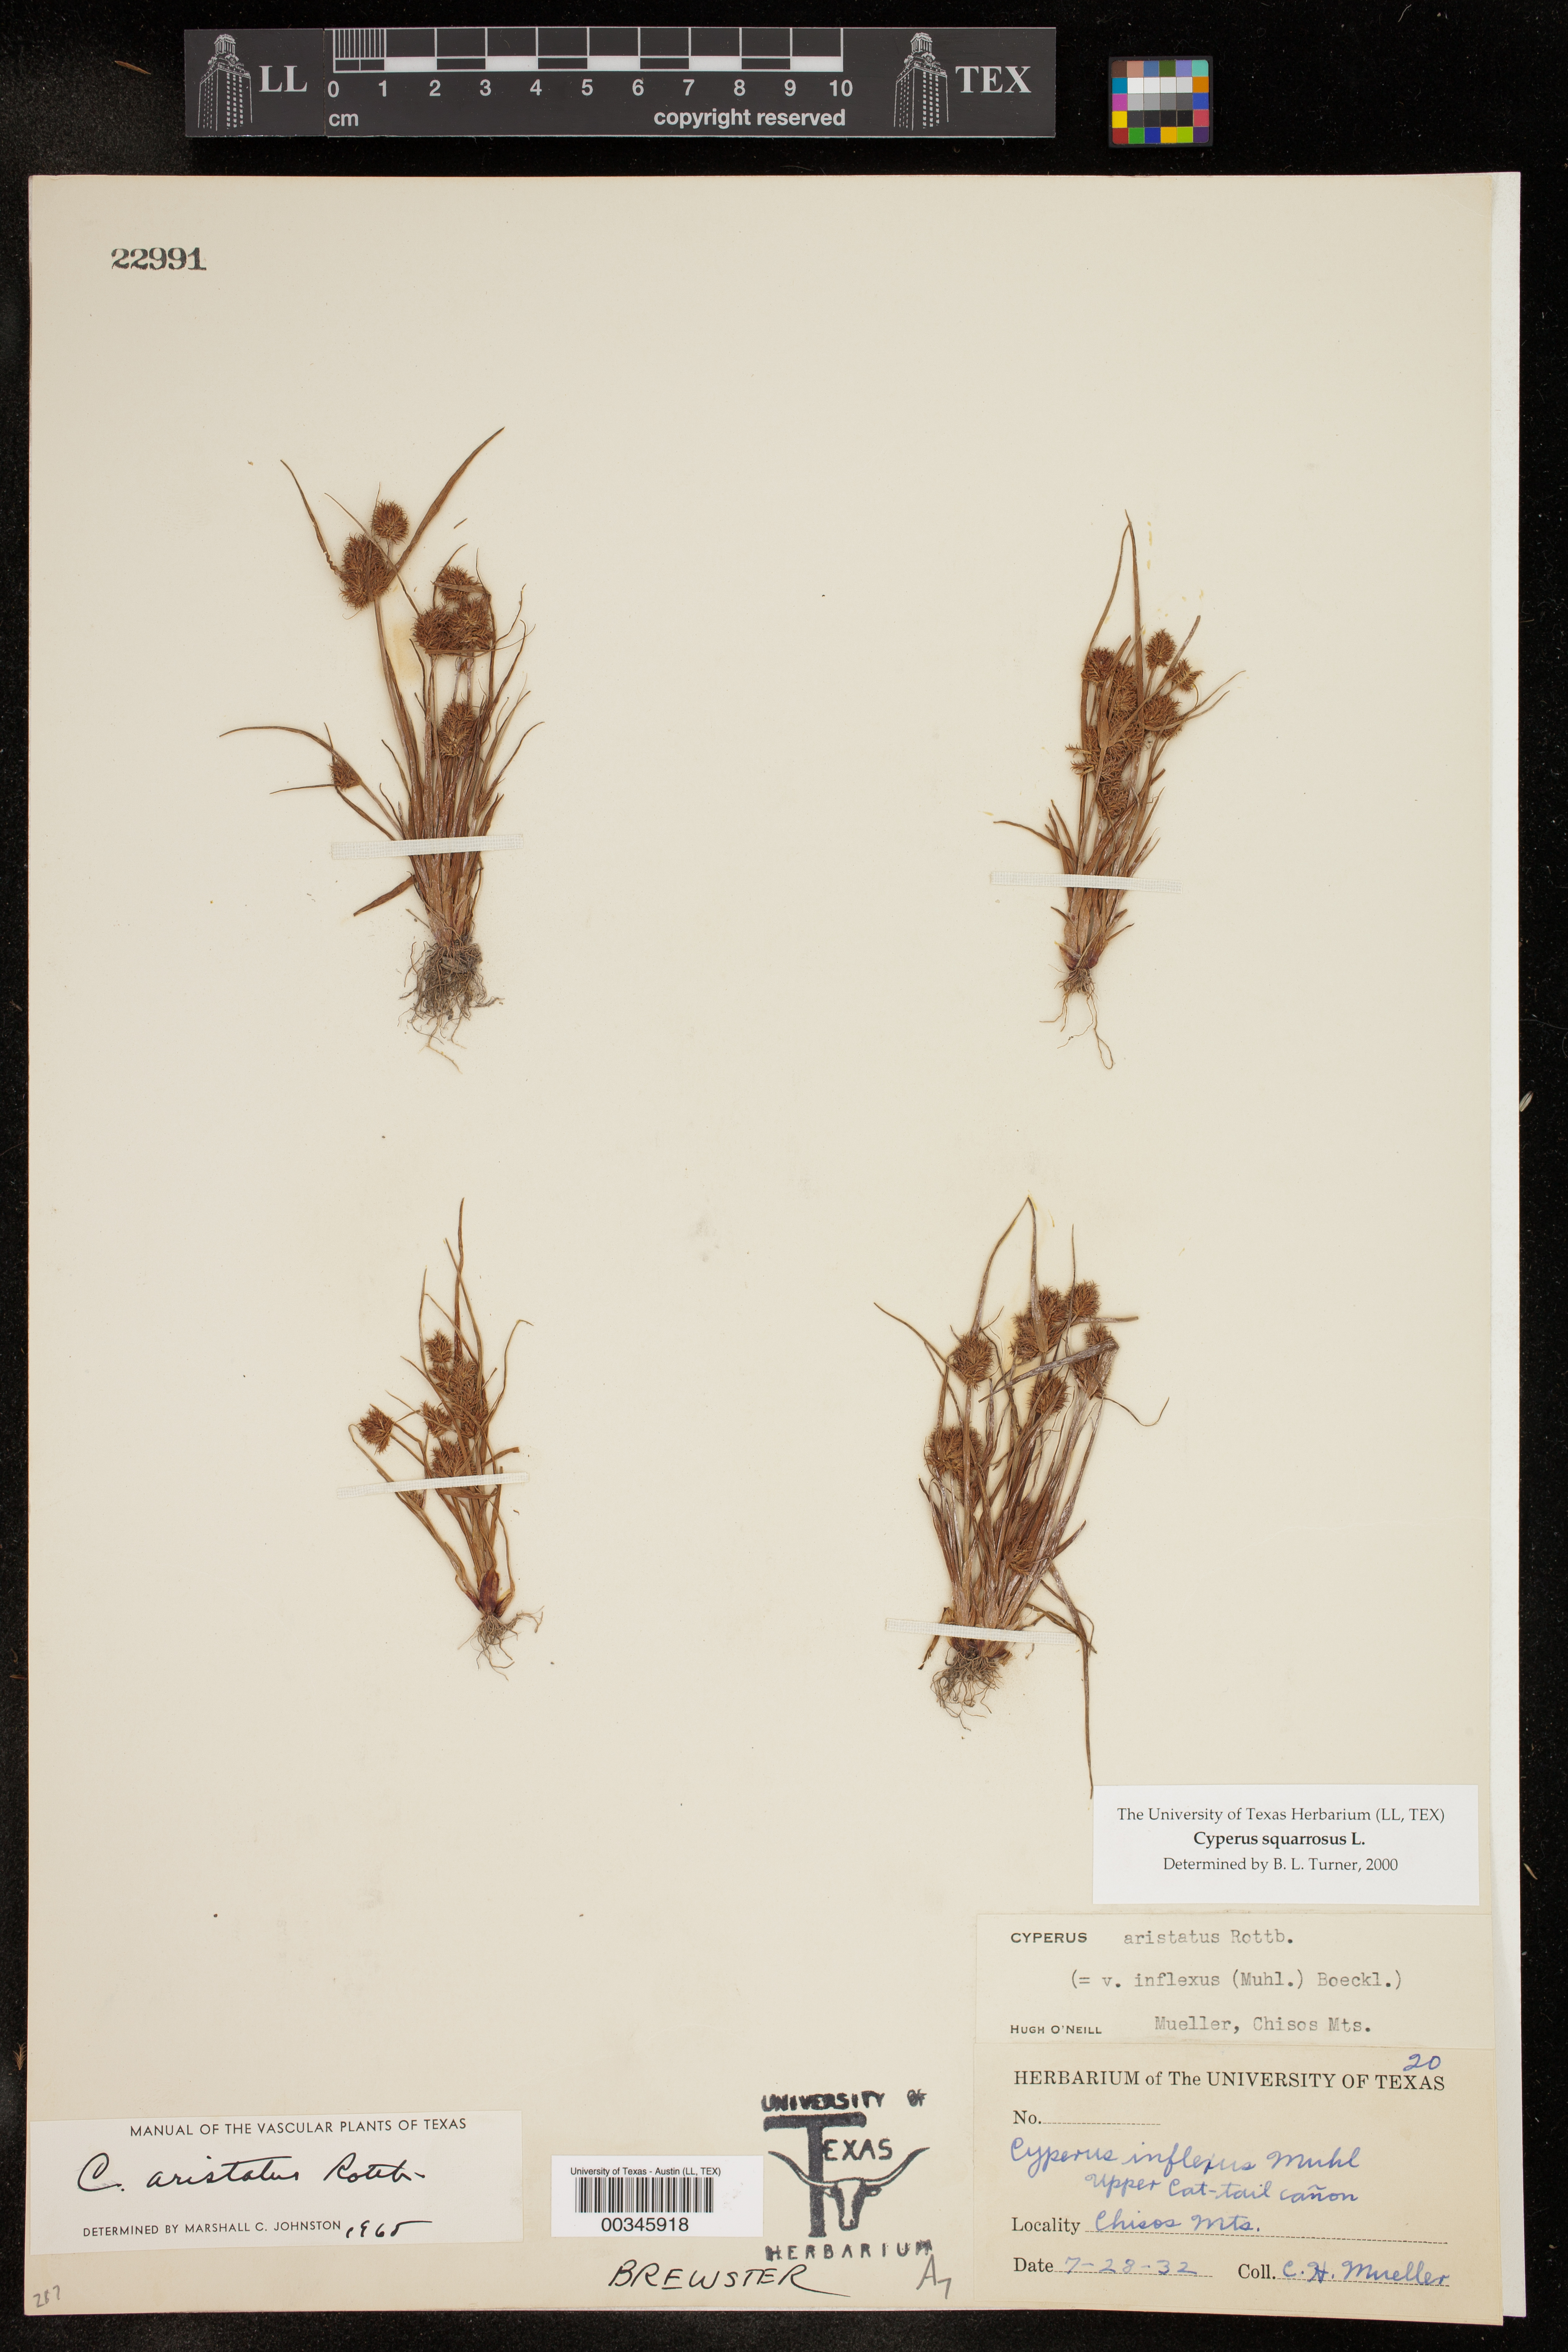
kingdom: Plantae
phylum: Tracheophyta
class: Liliopsida
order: Poales
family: Cyperaceae
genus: Cyperus
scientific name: Cyperus squarrosus
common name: Awned cyperus
